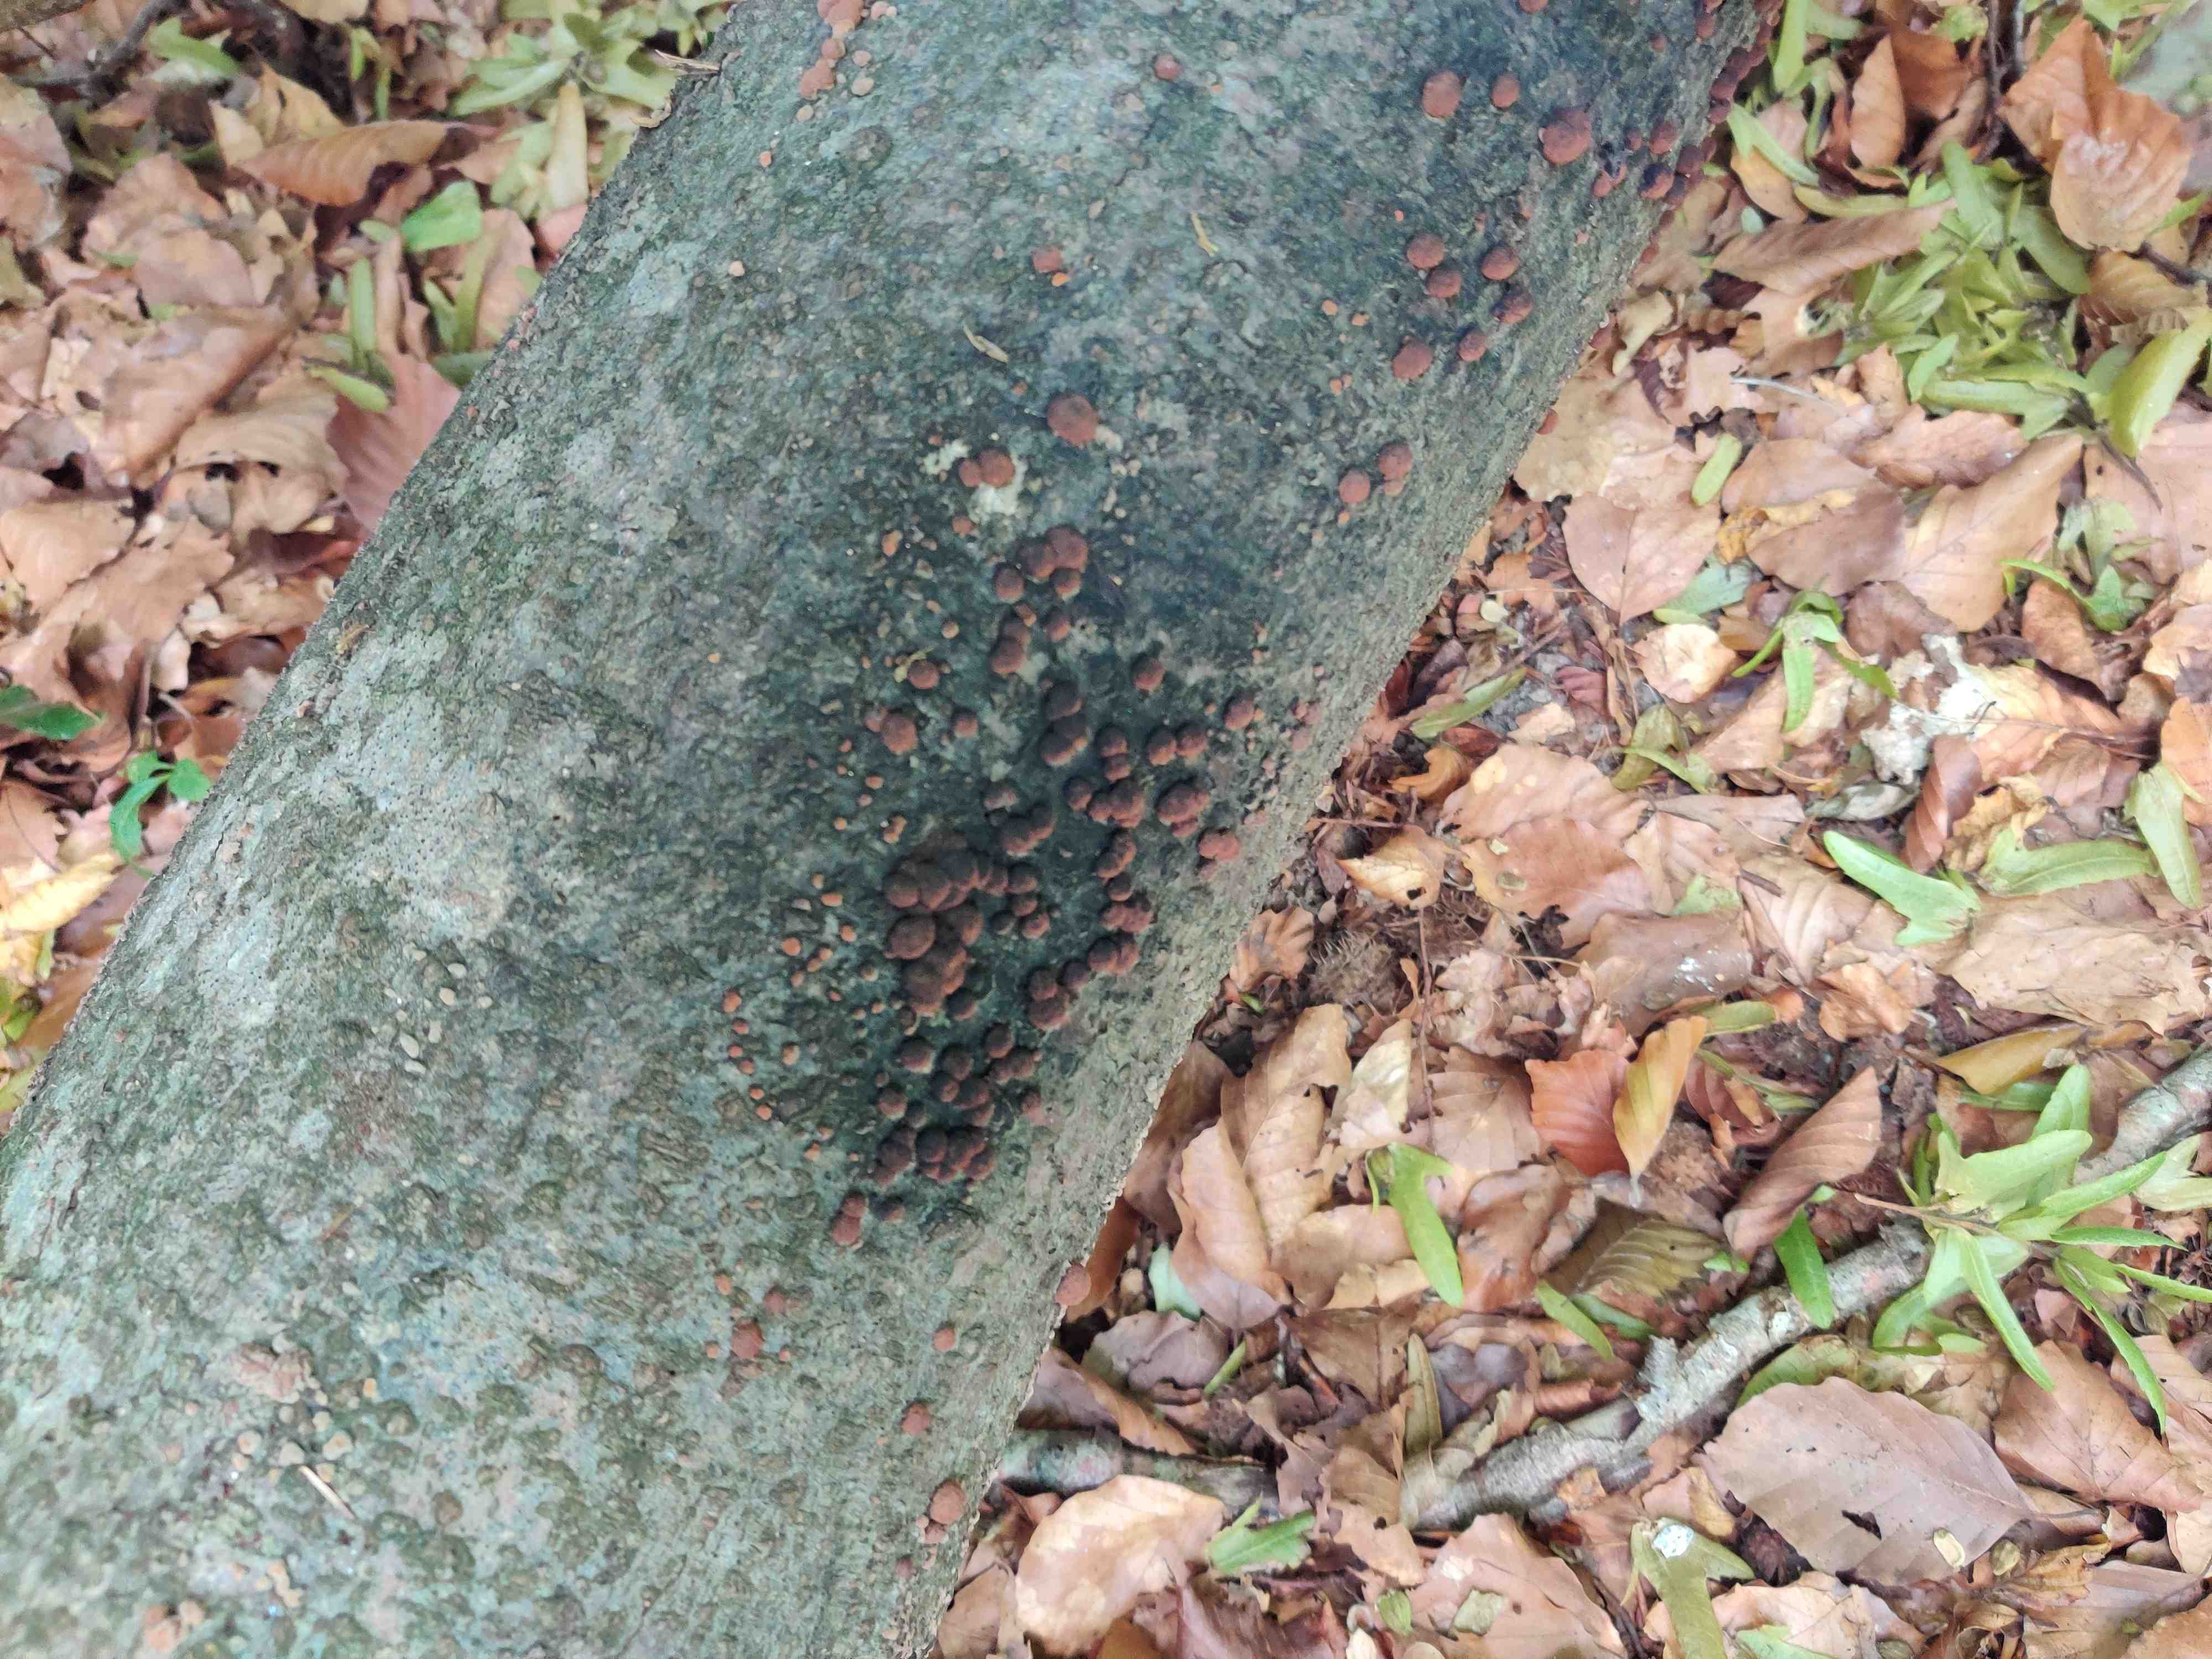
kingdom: Fungi
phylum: Ascomycota
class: Sordariomycetes
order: Xylariales
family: Hypoxylaceae
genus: Hypoxylon
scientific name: Hypoxylon fragiforme
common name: kuljordbær
